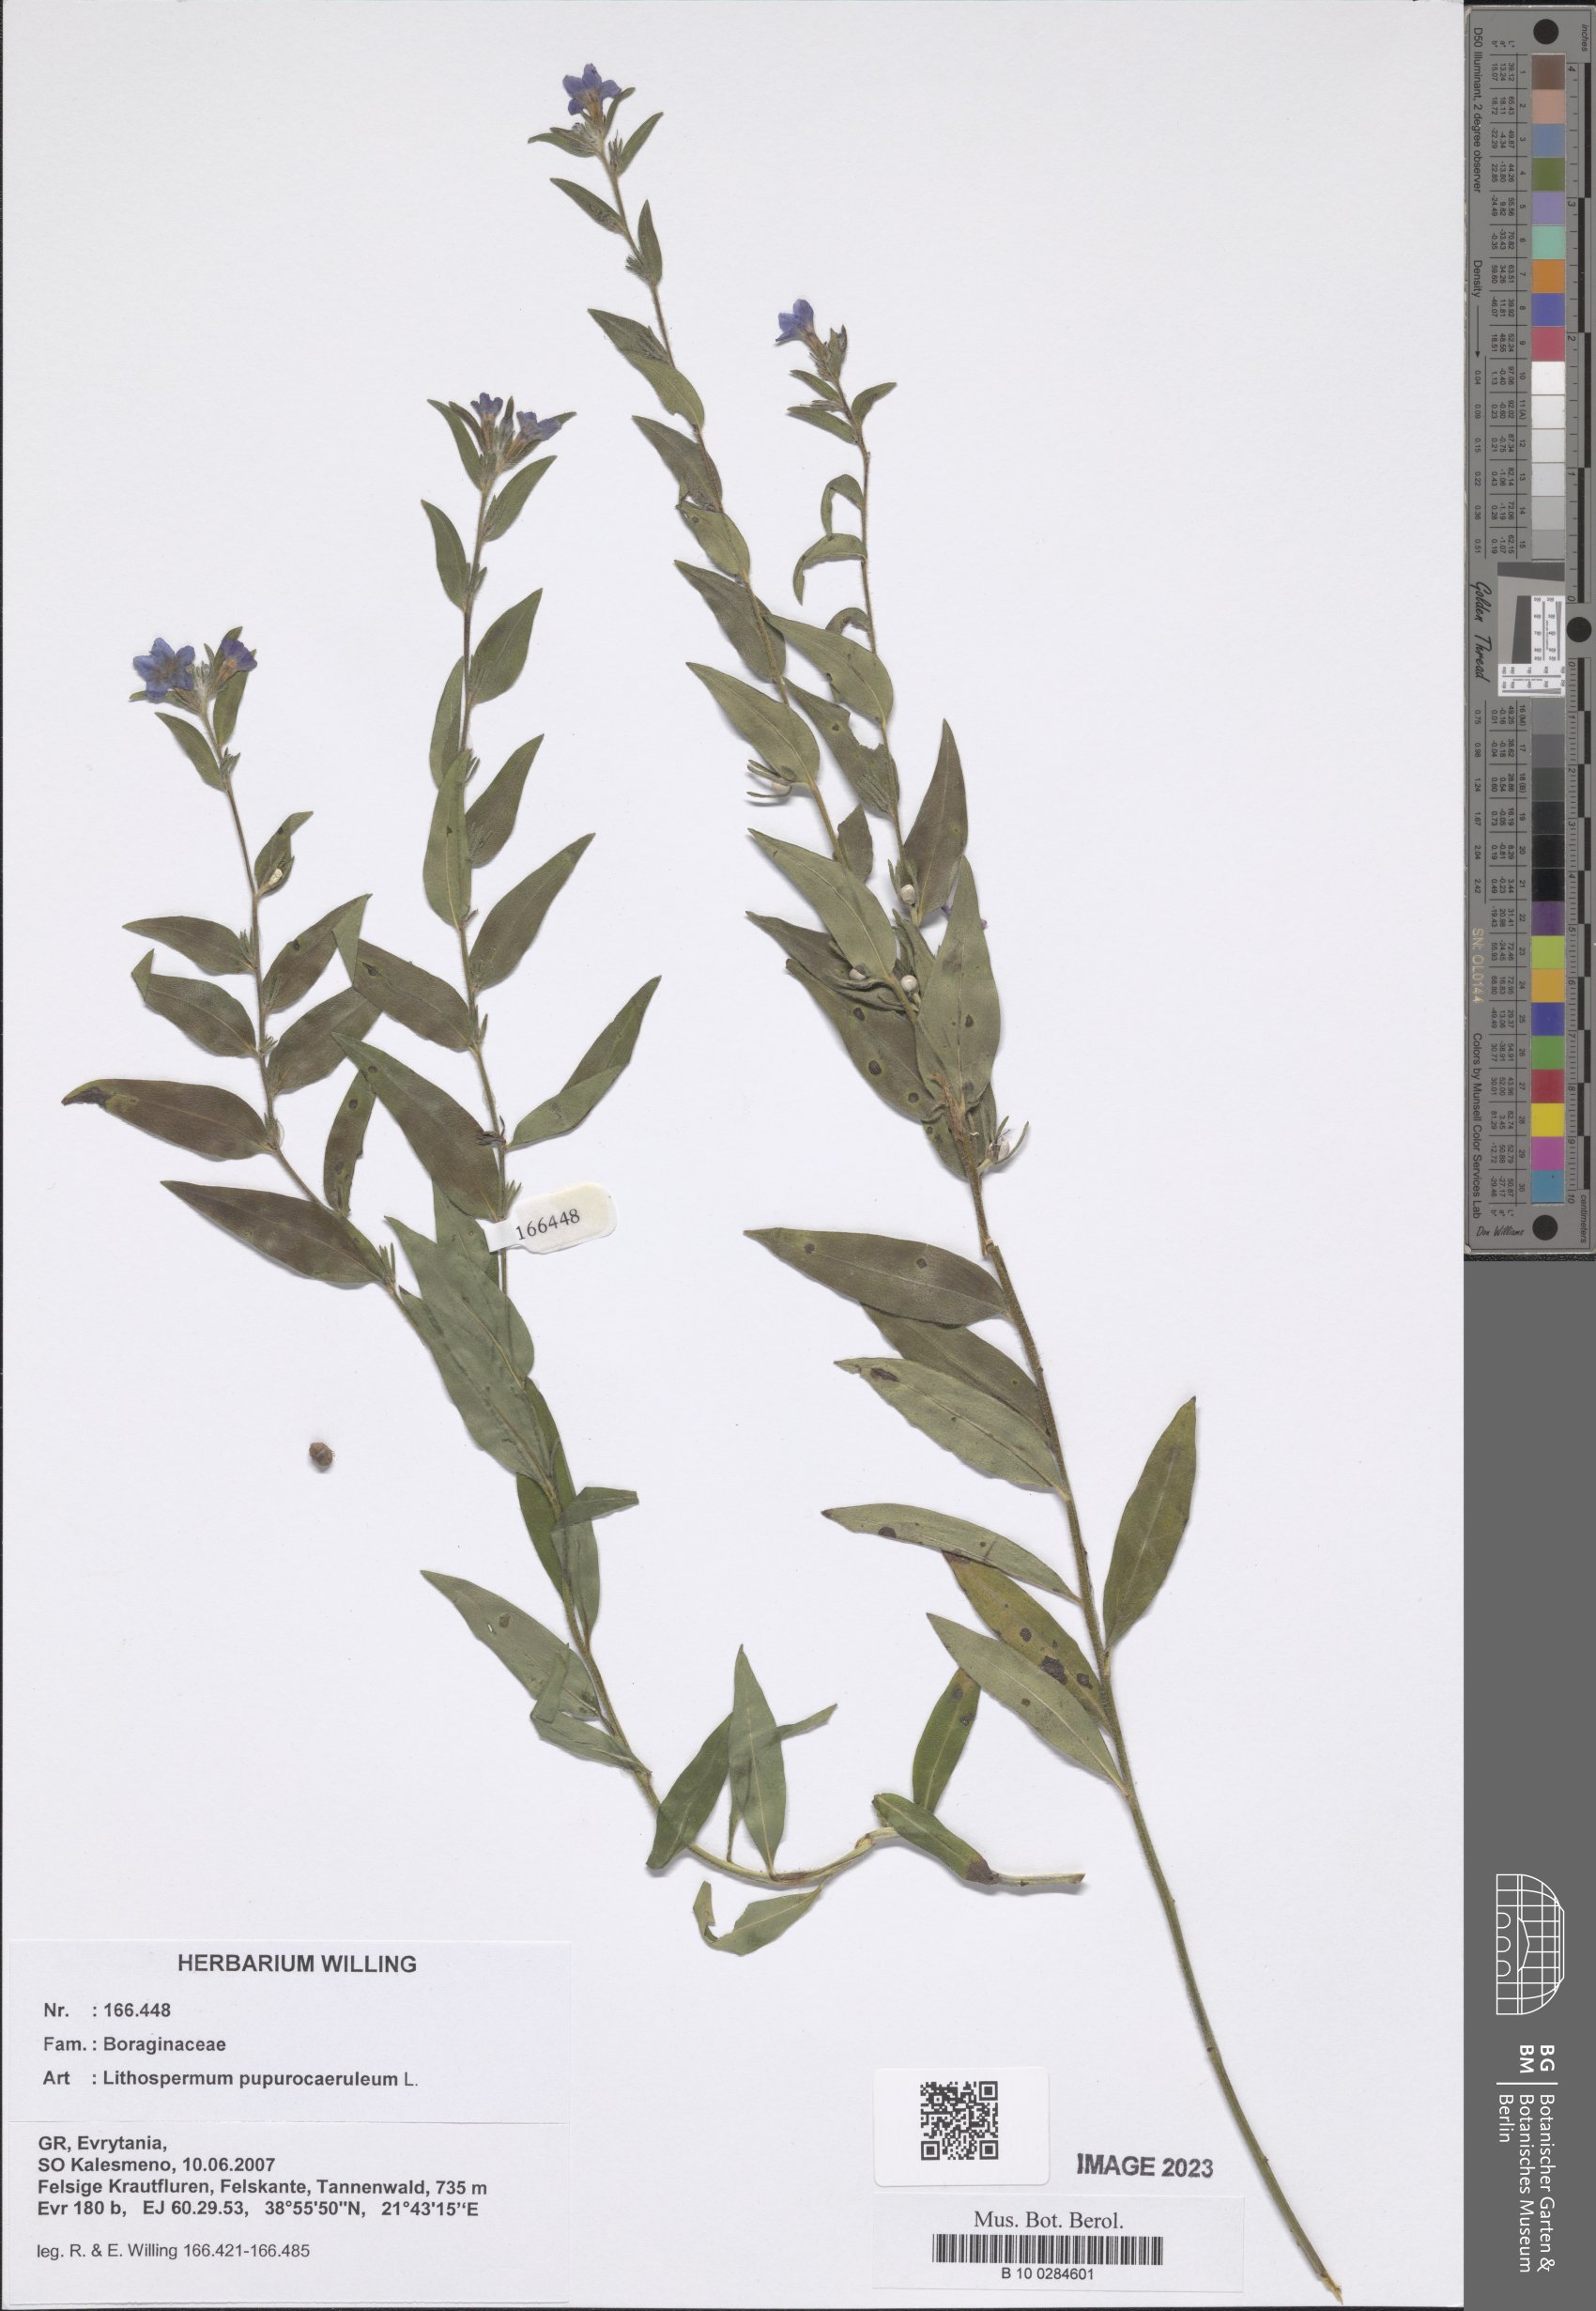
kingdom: Plantae
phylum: Tracheophyta
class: Magnoliopsida
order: Boraginales
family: Boraginaceae
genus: Aegonychon
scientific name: Aegonychon purpurocaeruleum
